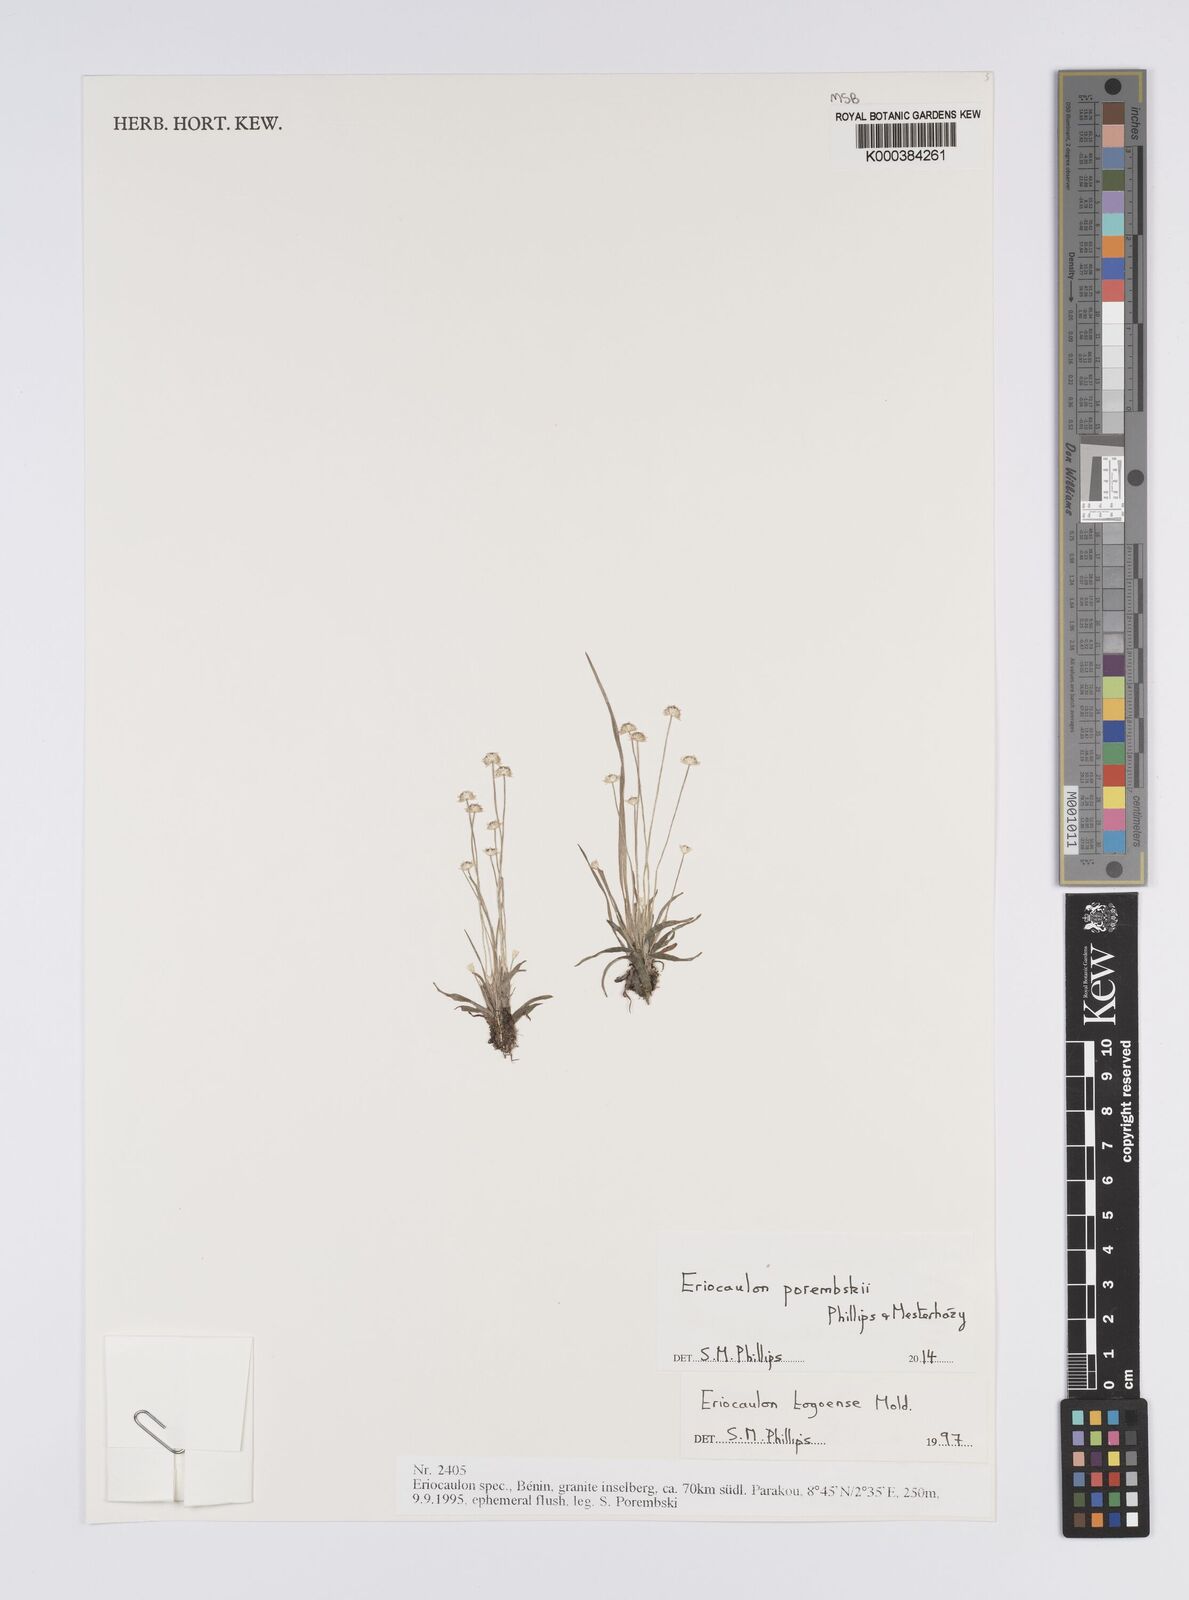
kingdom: Plantae
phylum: Tracheophyta
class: Liliopsida
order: Poales
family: Eriocaulaceae
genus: Eriocaulon
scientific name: Eriocaulon togoense
